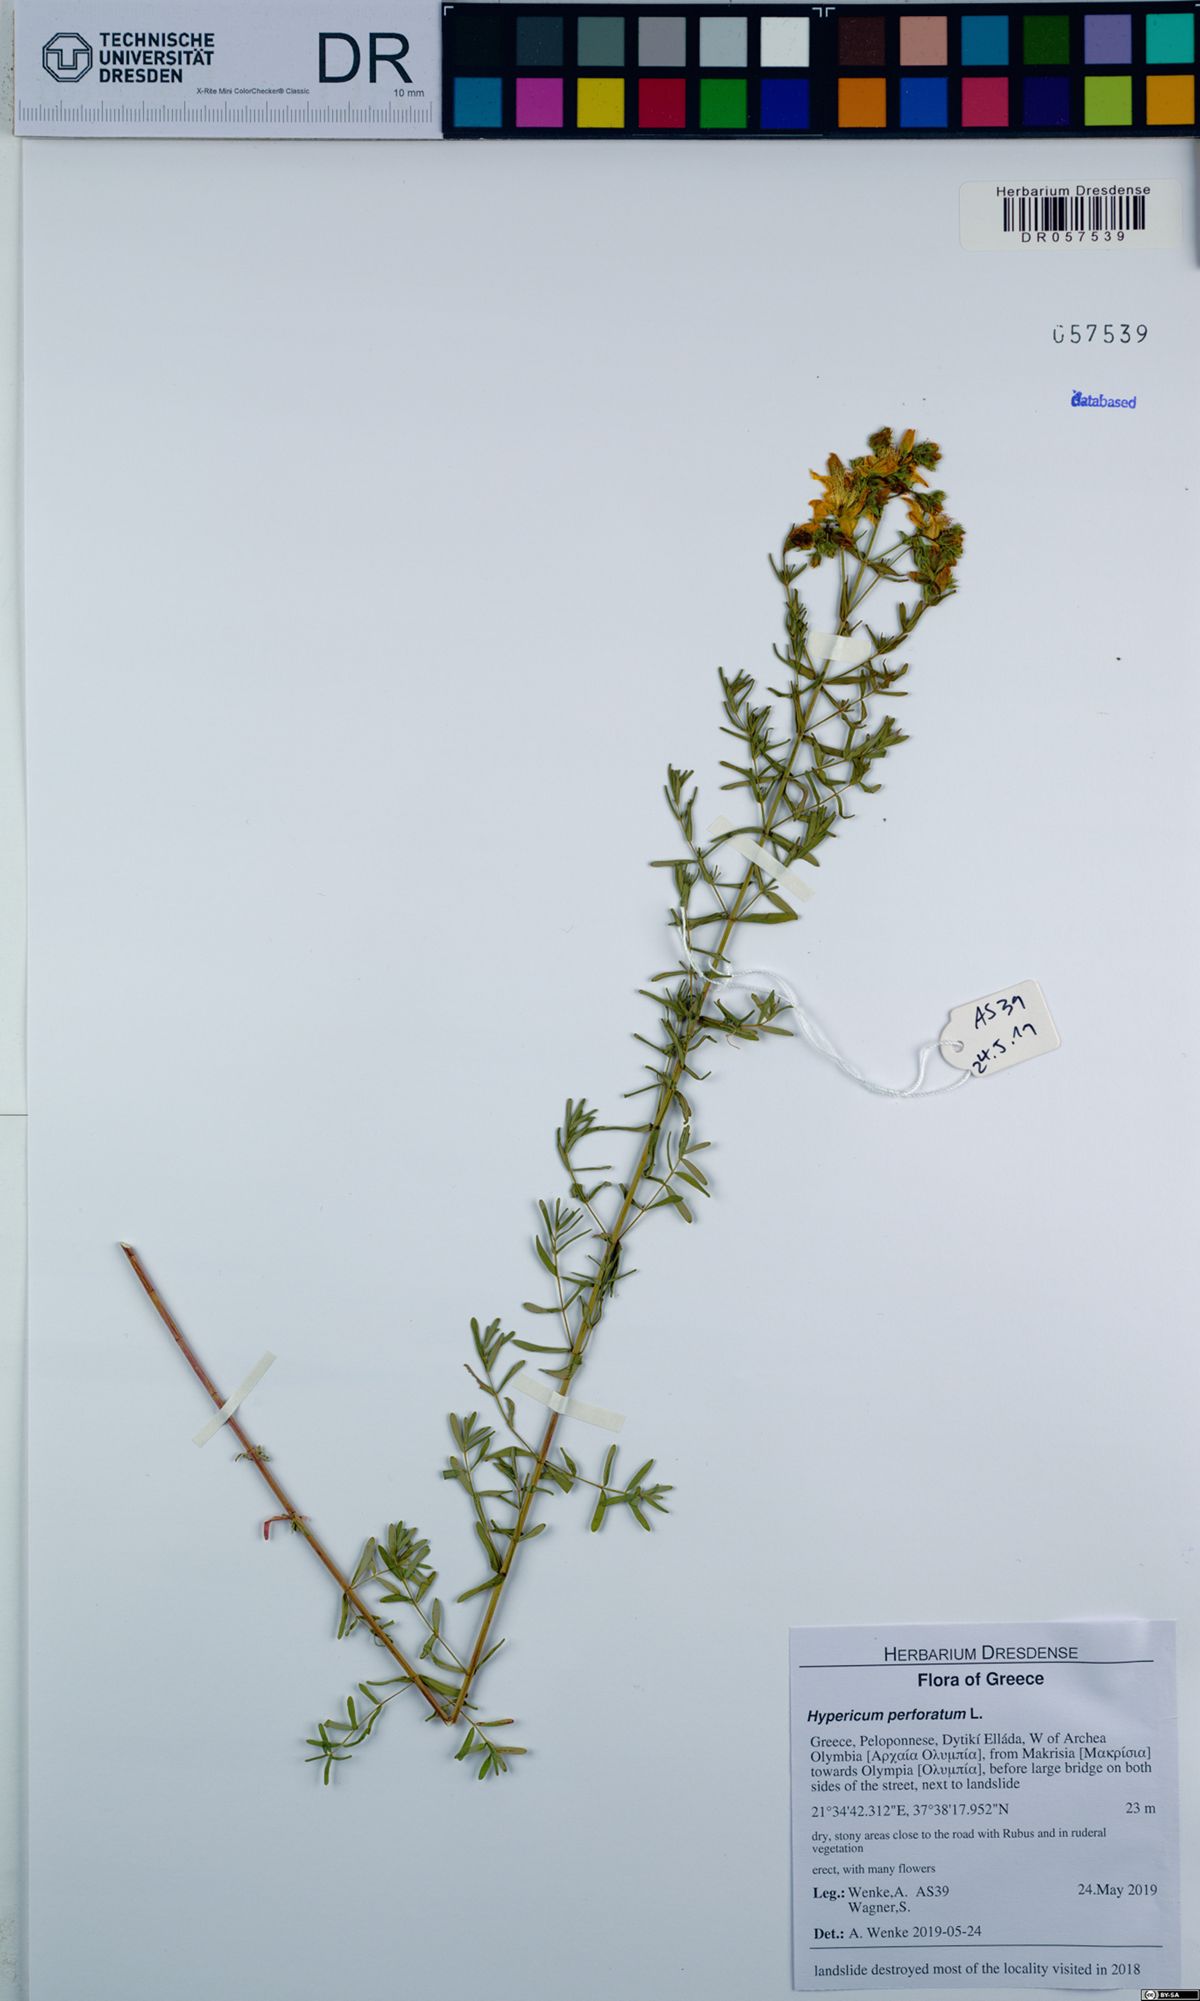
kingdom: Plantae
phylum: Tracheophyta
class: Magnoliopsida
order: Malpighiales
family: Hypericaceae
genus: Hypericum
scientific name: Hypericum perforatum
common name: Common st. johnswort
